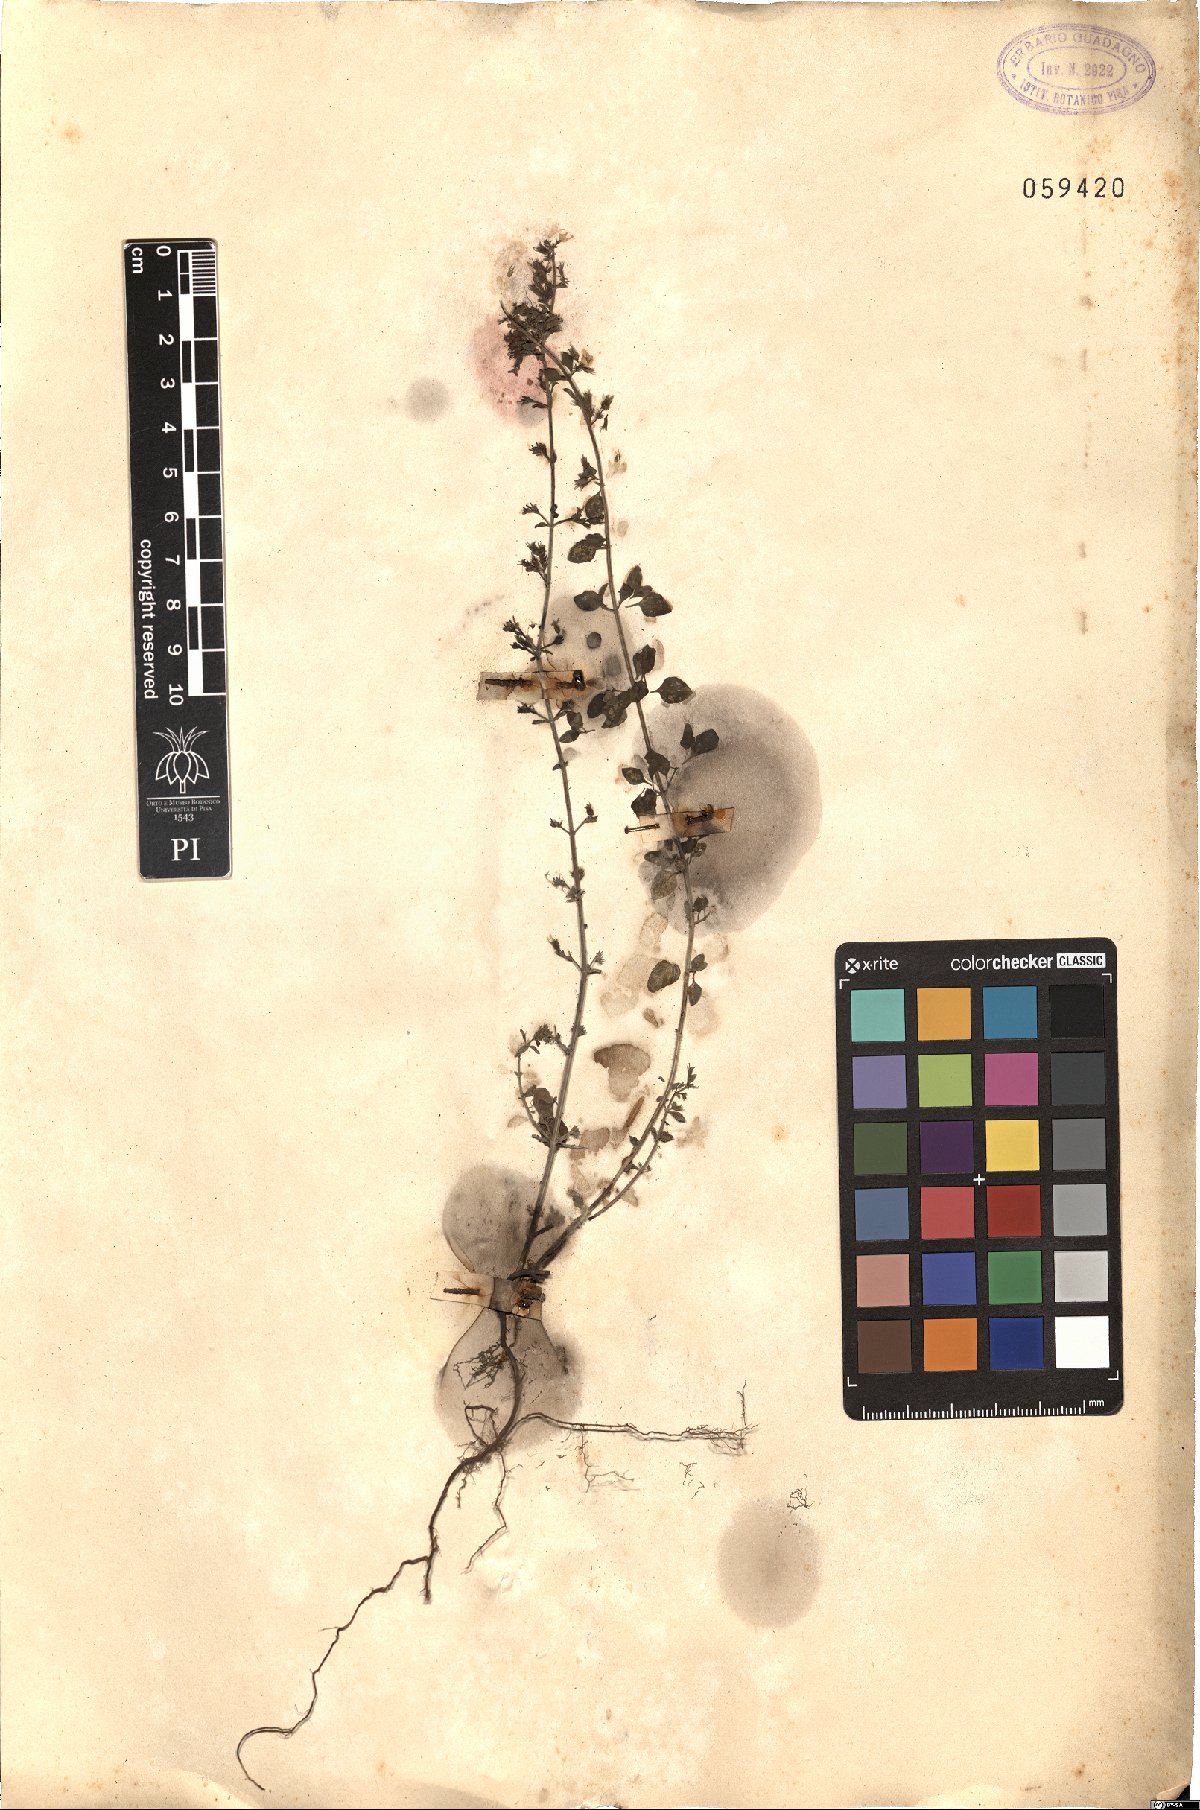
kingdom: Plantae
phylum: Tracheophyta
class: Magnoliopsida
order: Lamiales
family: Lamiaceae
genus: Clinopodium
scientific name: Clinopodium menthifolium
